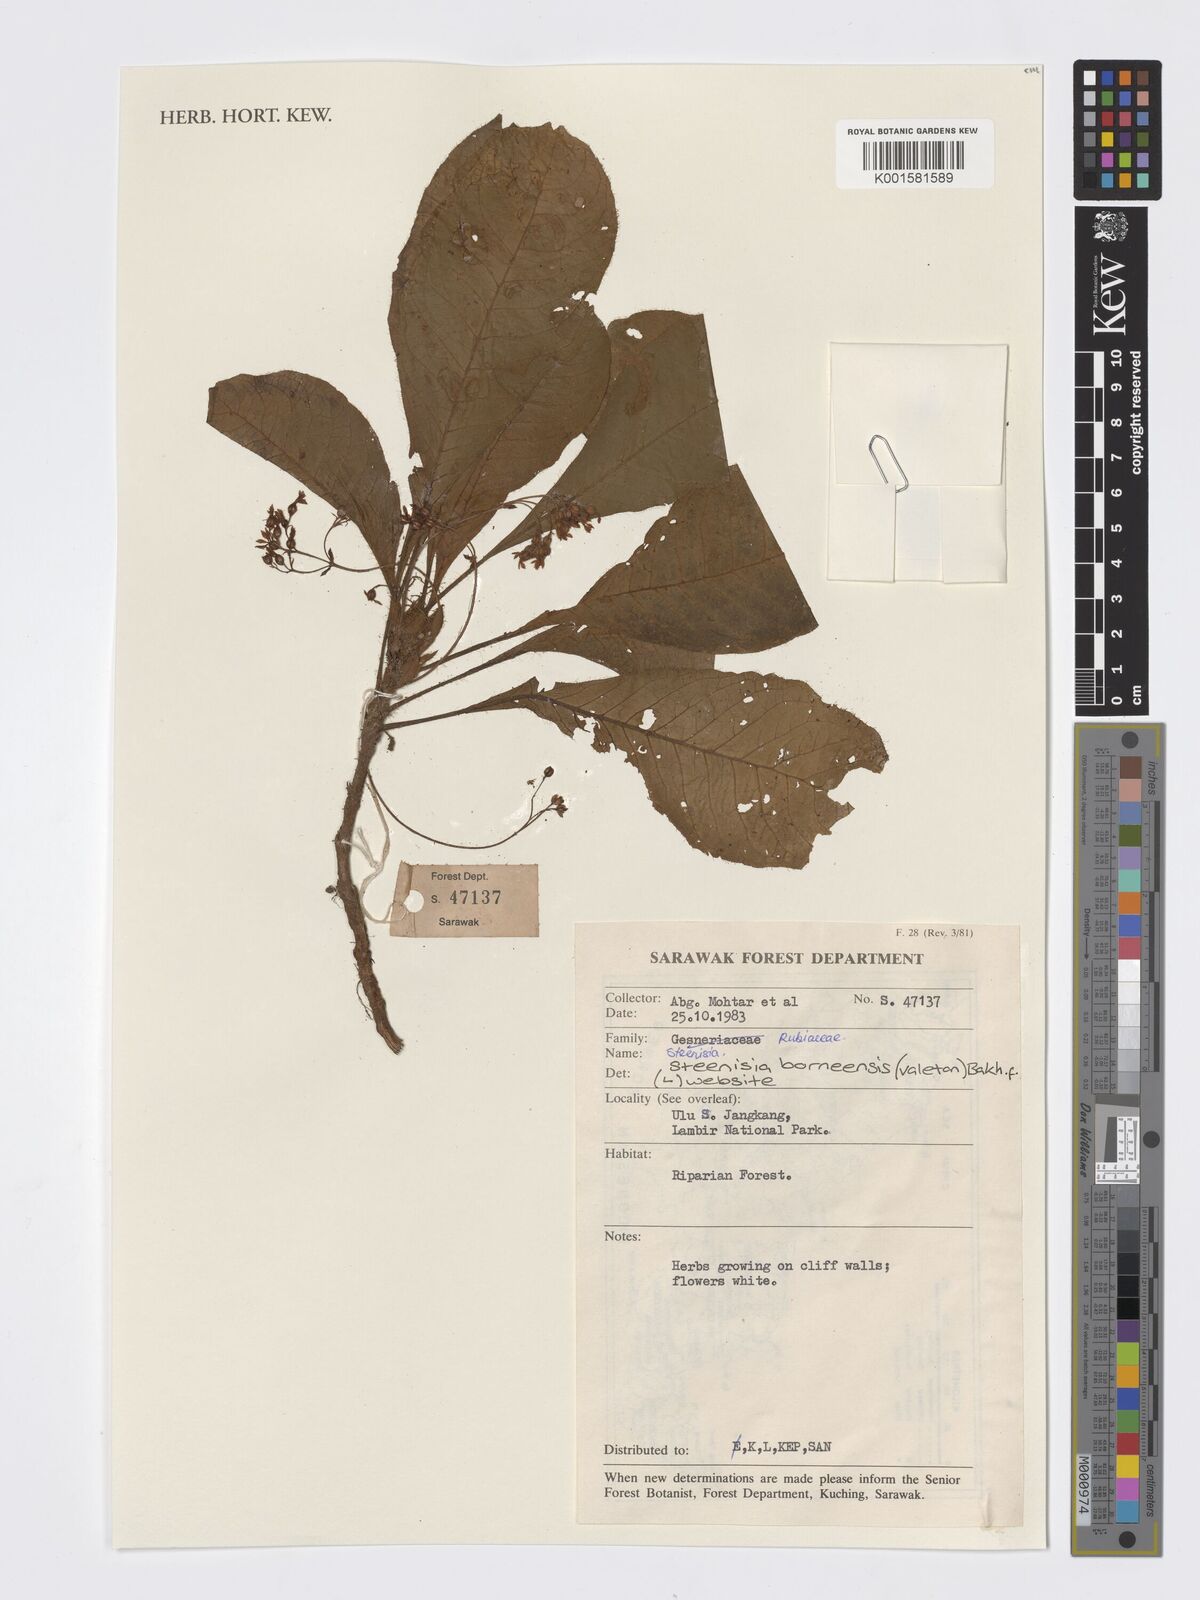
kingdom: Plantae
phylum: Tracheophyta
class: Magnoliopsida
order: Gentianales
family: Rubiaceae
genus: Steenisia
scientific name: Steenisia borneensis
